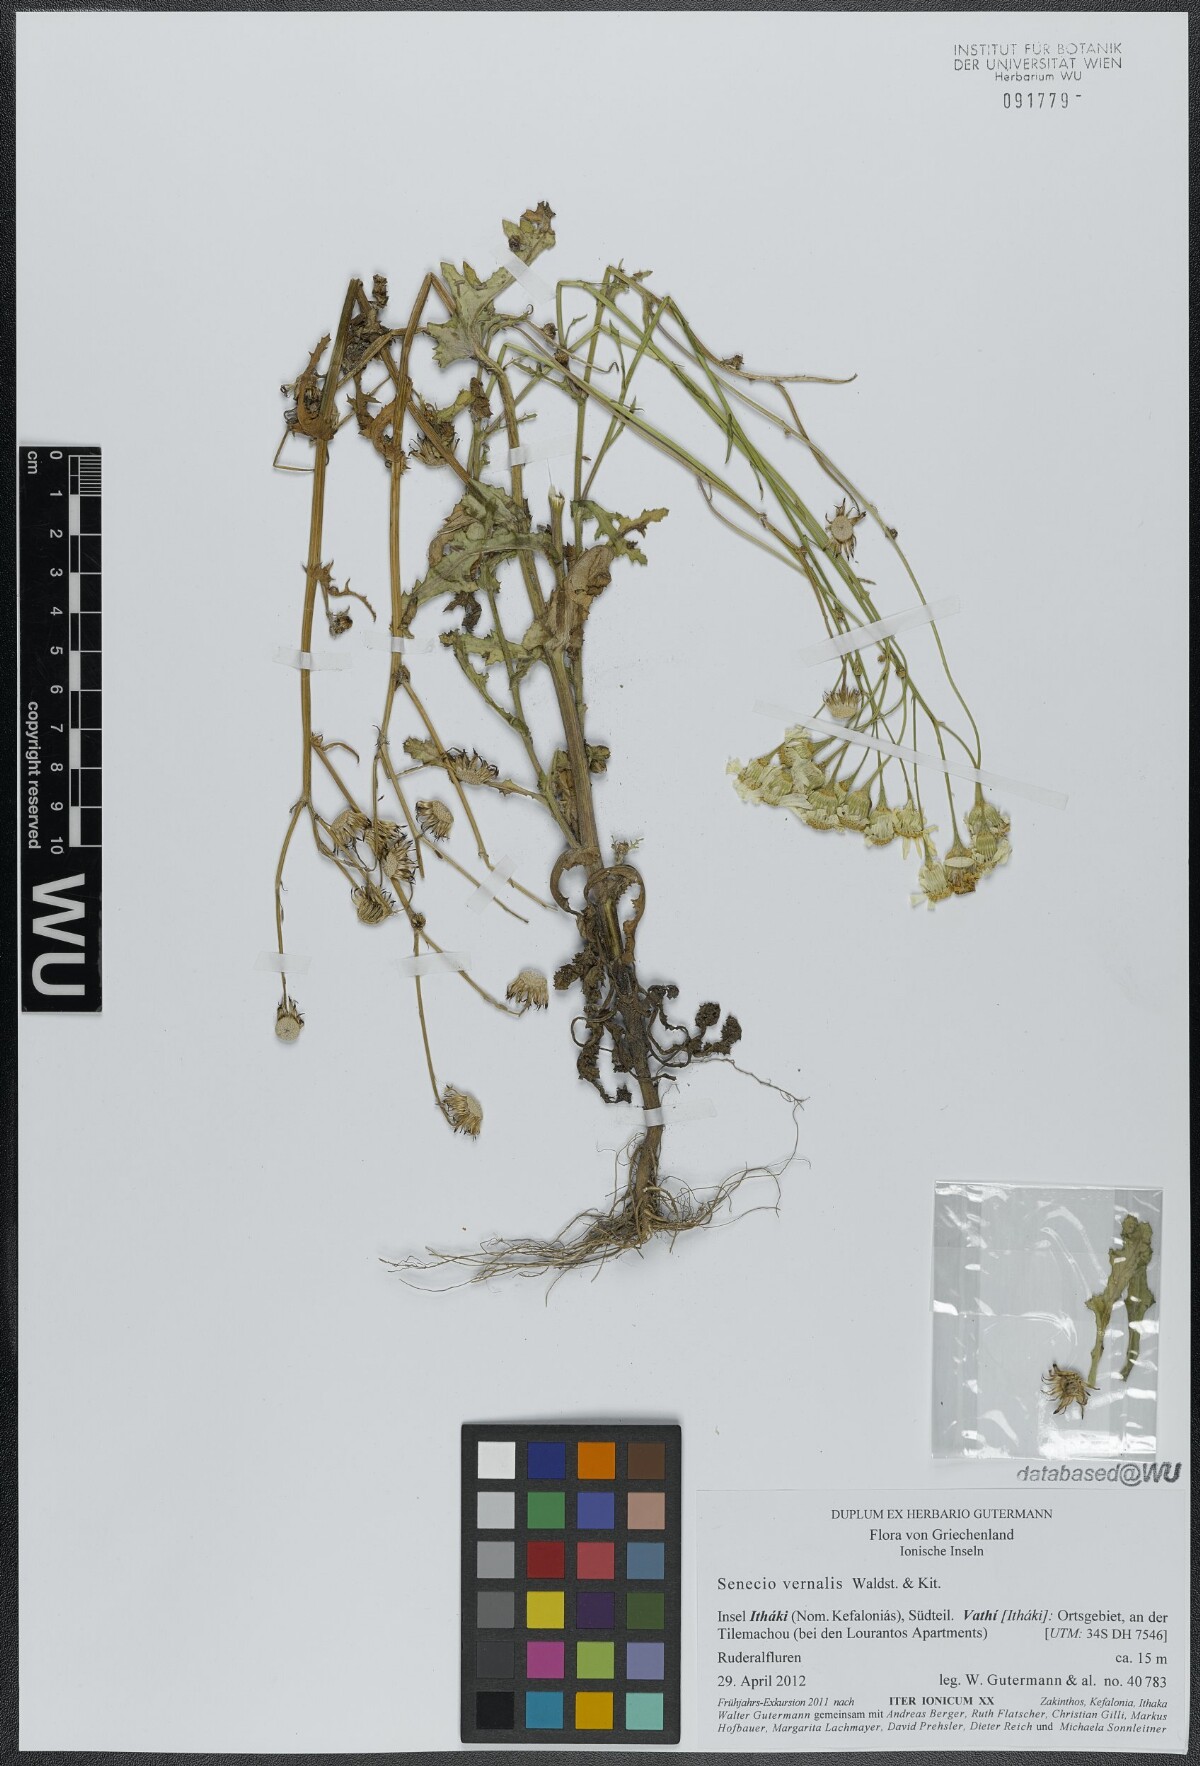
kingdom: Plantae
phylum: Tracheophyta
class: Magnoliopsida
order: Asterales
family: Asteraceae
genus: Senecio
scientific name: Senecio vernalis
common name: Eastern groundsel
